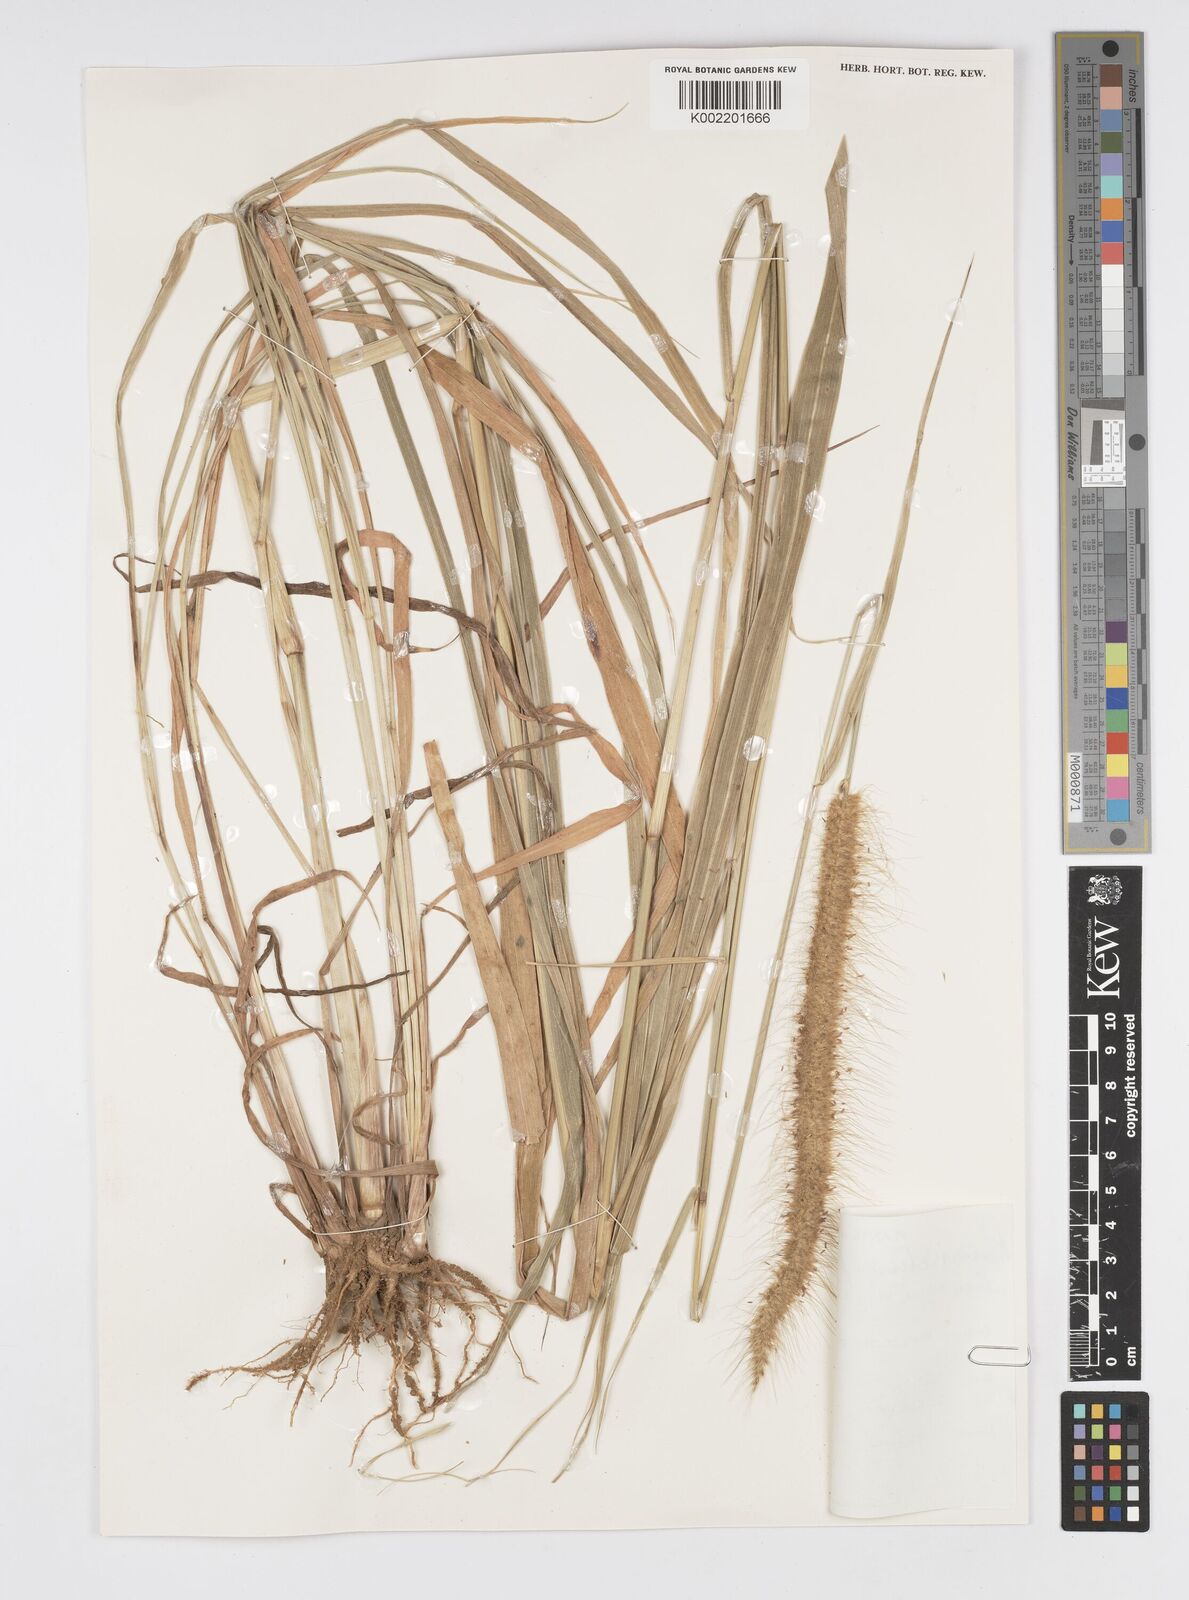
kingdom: Plantae
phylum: Tracheophyta
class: Liliopsida
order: Poales
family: Poaceae
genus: Setaria
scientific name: Setaria parviflora
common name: Knotroot bristle-grass
